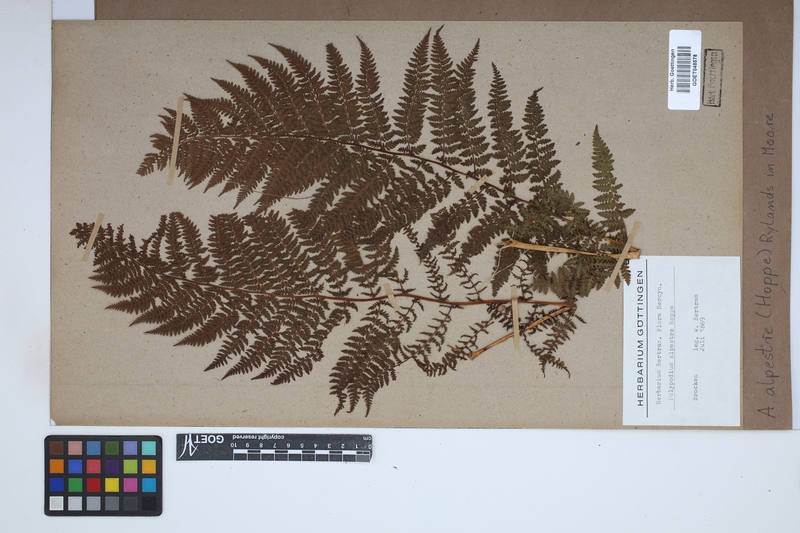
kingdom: Plantae
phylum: Tracheophyta
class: Polypodiopsida
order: Polypodiales
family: Athyriaceae
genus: Pseudathyrium
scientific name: Pseudathyrium alpestre
